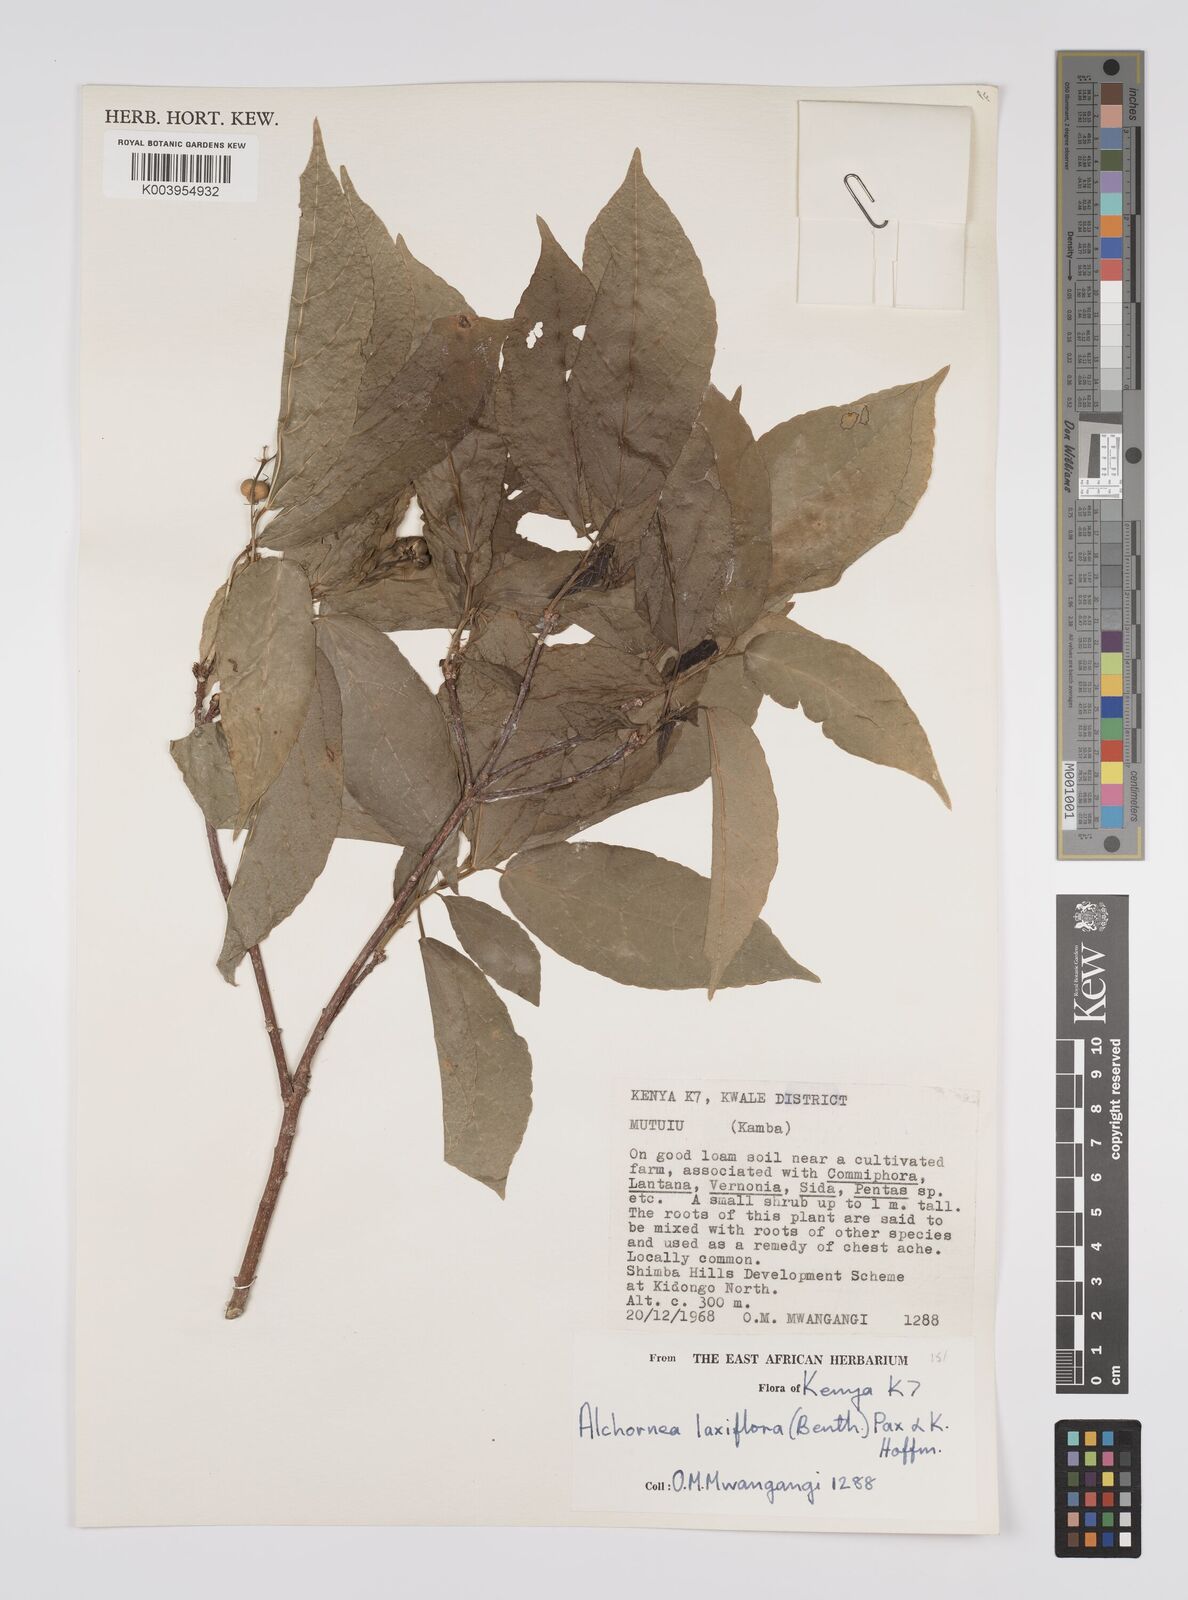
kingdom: Plantae
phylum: Tracheophyta
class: Magnoliopsida
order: Malpighiales
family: Euphorbiaceae
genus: Alchornea
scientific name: Alchornea laxiflora
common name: Lowveld bead-string
